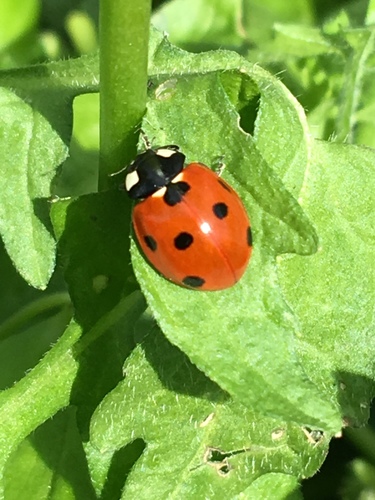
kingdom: Animalia
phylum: Arthropoda
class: Insecta
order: Coleoptera
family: Coccinellidae
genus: Coccinella
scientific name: Coccinella septempunctata
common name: Sevenspotted lady beetle
